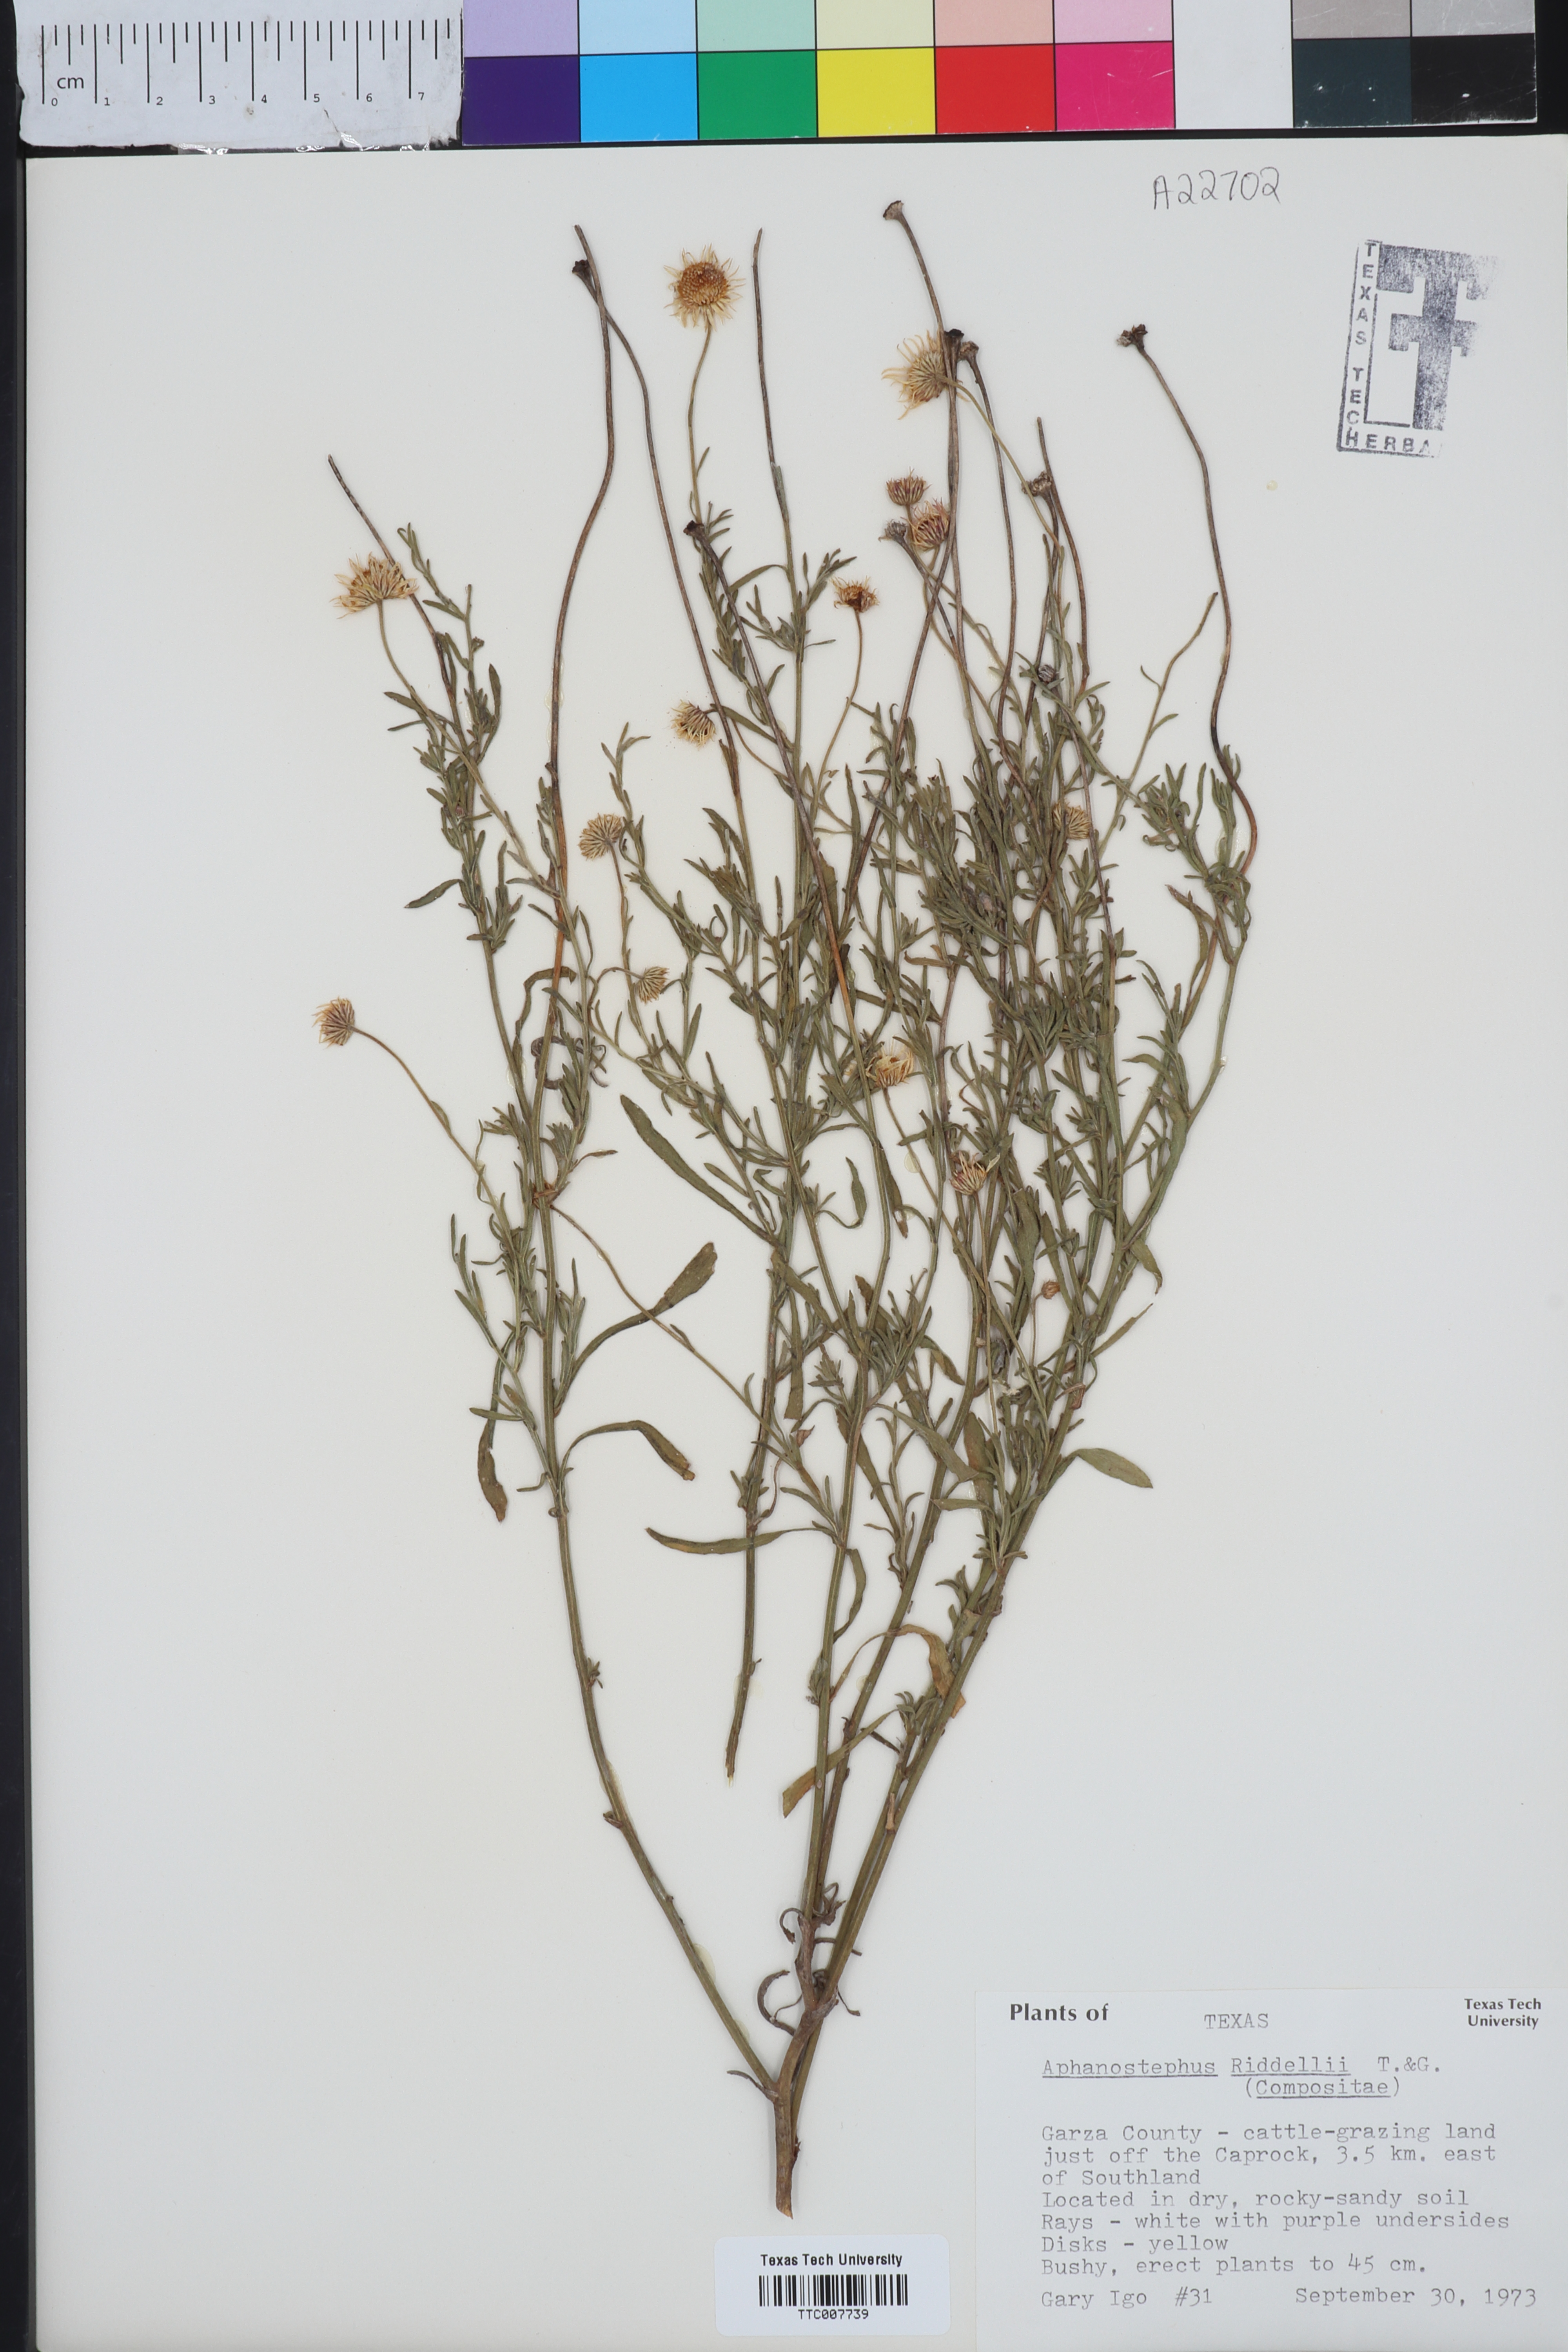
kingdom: Plantae
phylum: Tracheophyta
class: Magnoliopsida
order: Asterales
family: Asteraceae
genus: Aphanostephus
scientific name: Aphanostephus riddellii
